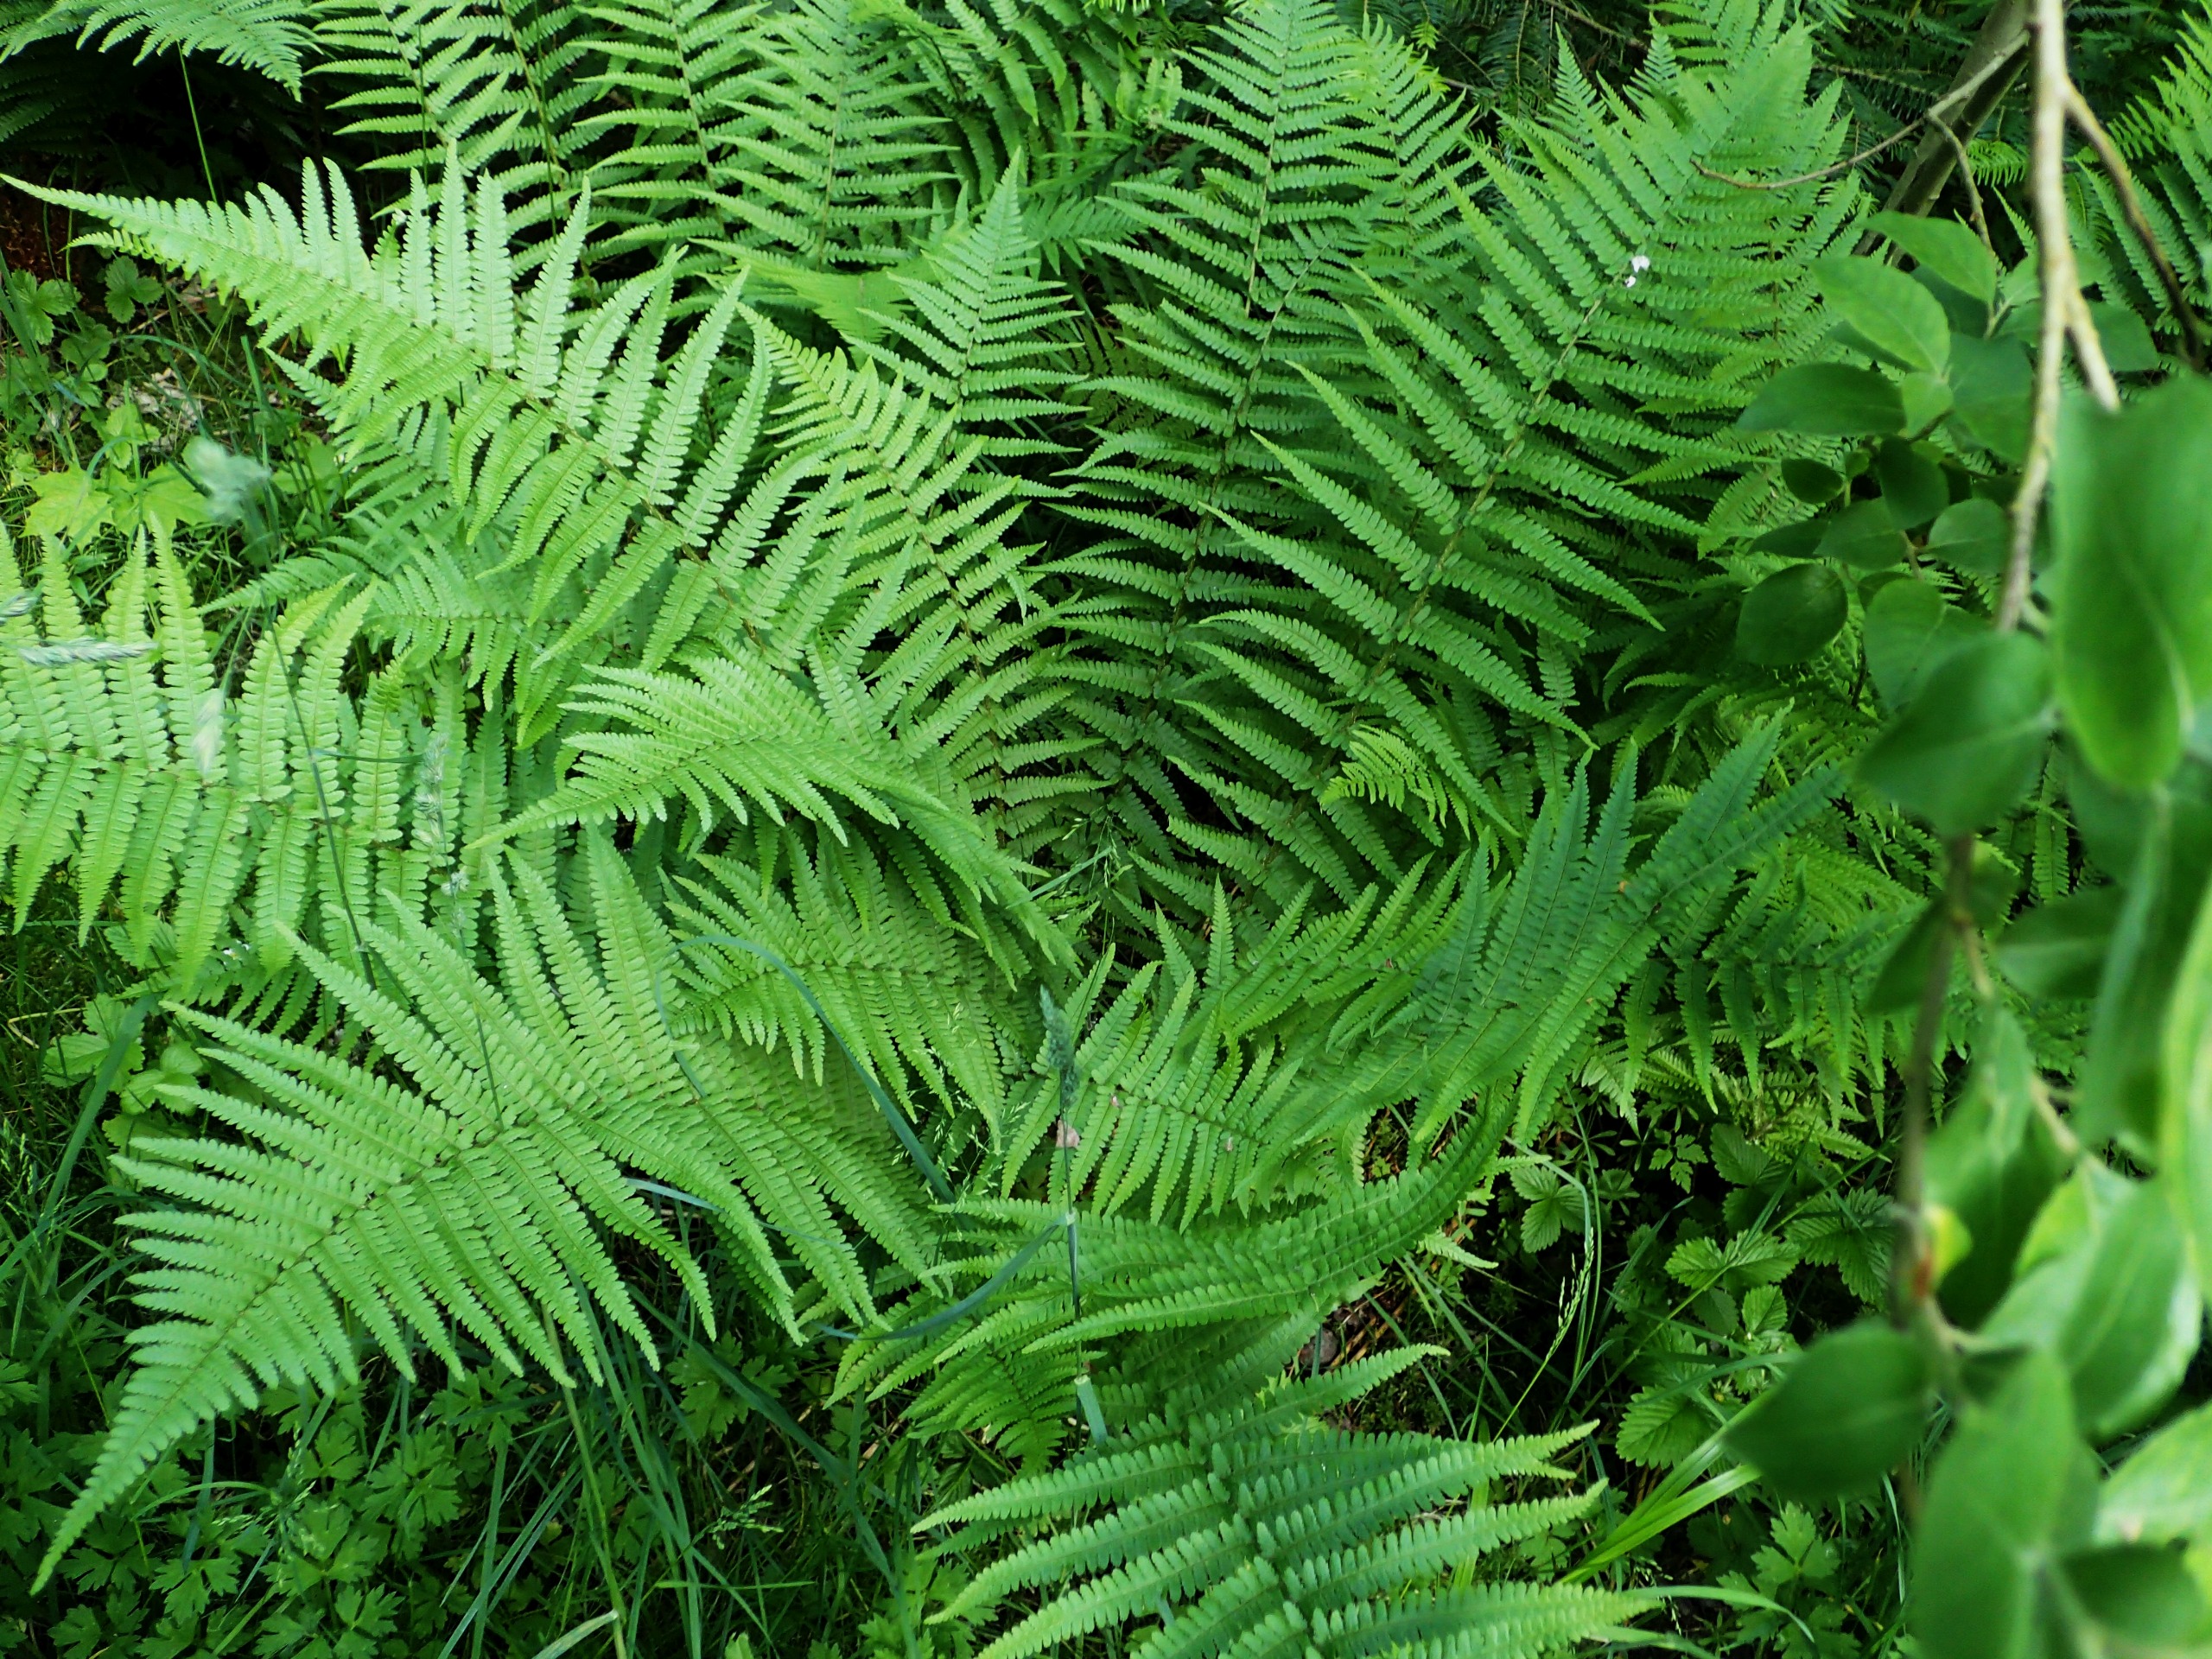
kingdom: Plantae
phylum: Tracheophyta
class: Polypodiopsida
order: Polypodiales
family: Dryopteridaceae
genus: Dryopteris
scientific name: Dryopteris filix-mas
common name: Almindelig mangeløv
